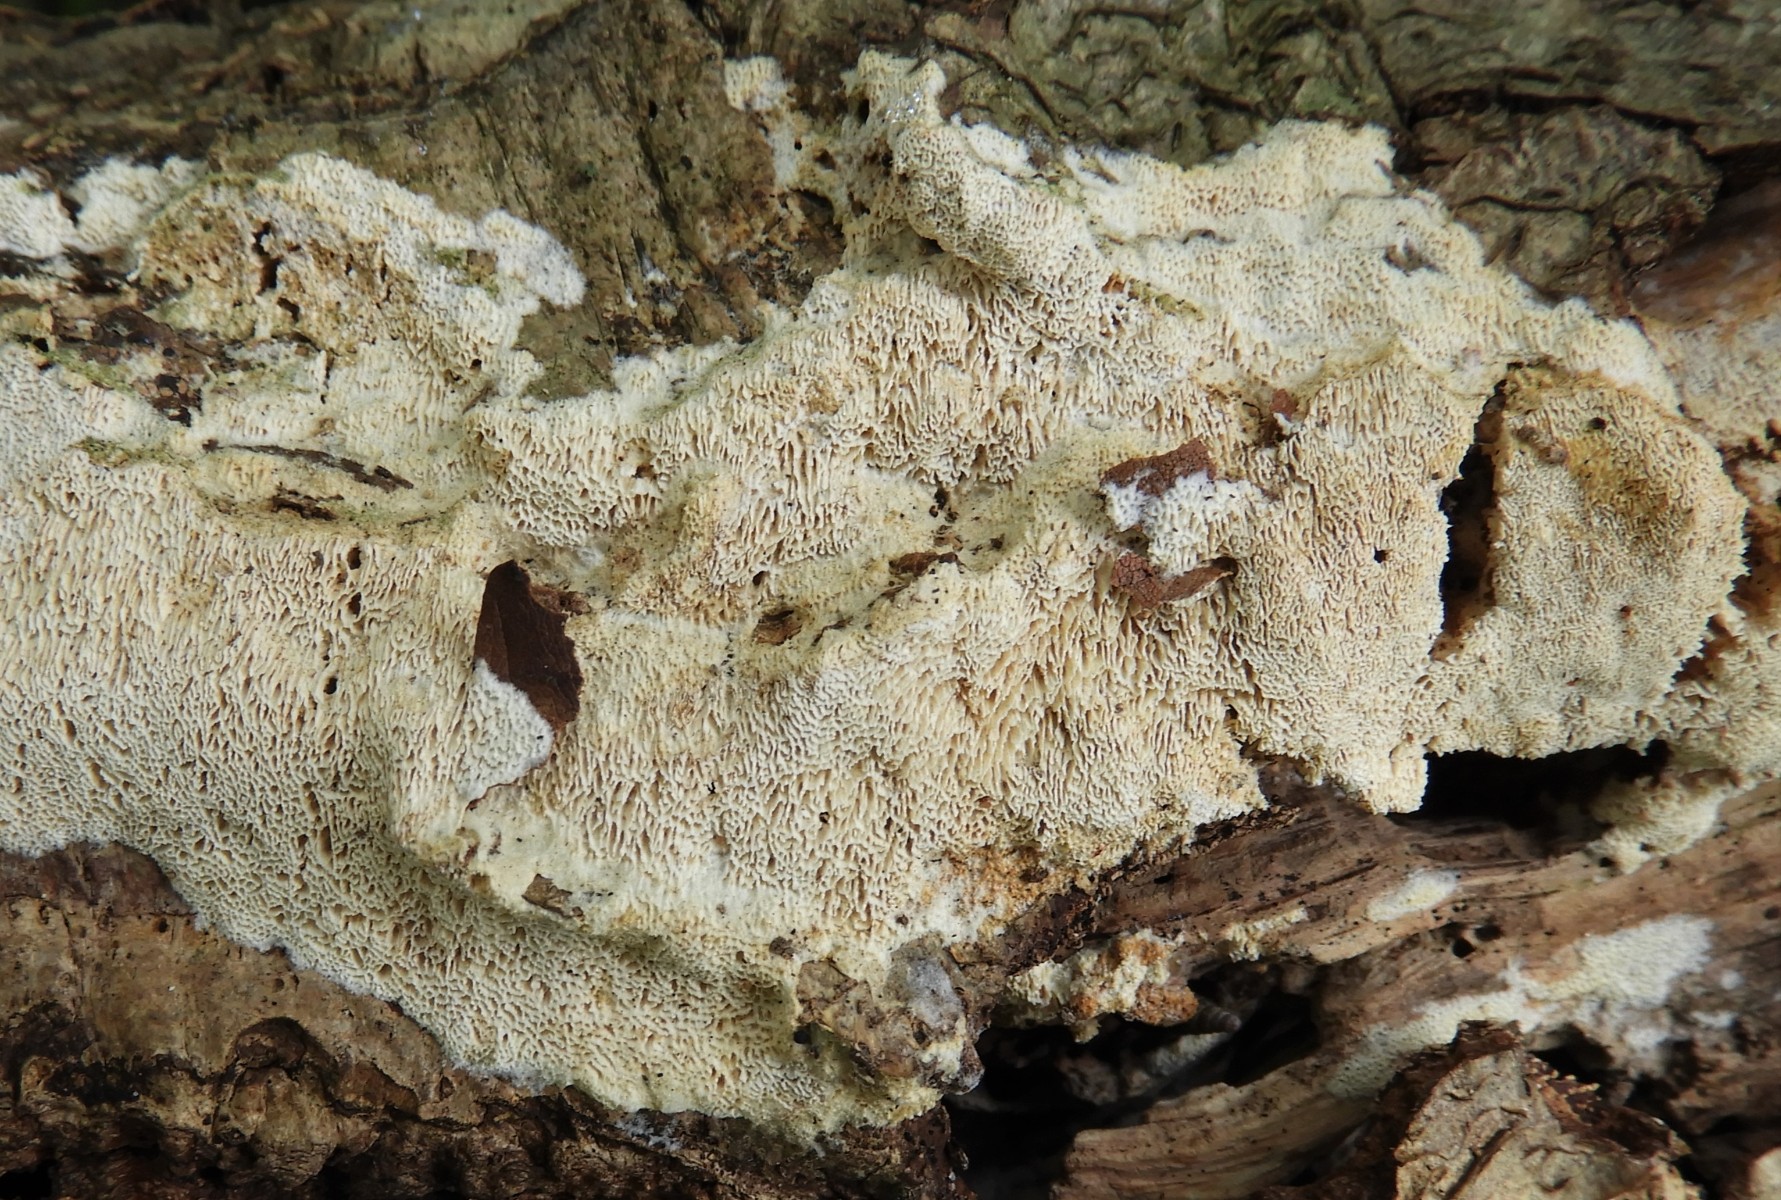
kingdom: Fungi
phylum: Basidiomycota
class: Agaricomycetes
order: Hymenochaetales
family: Schizoporaceae
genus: Xylodon
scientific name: Xylodon subtropicus
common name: labyrint-tandsvamp
